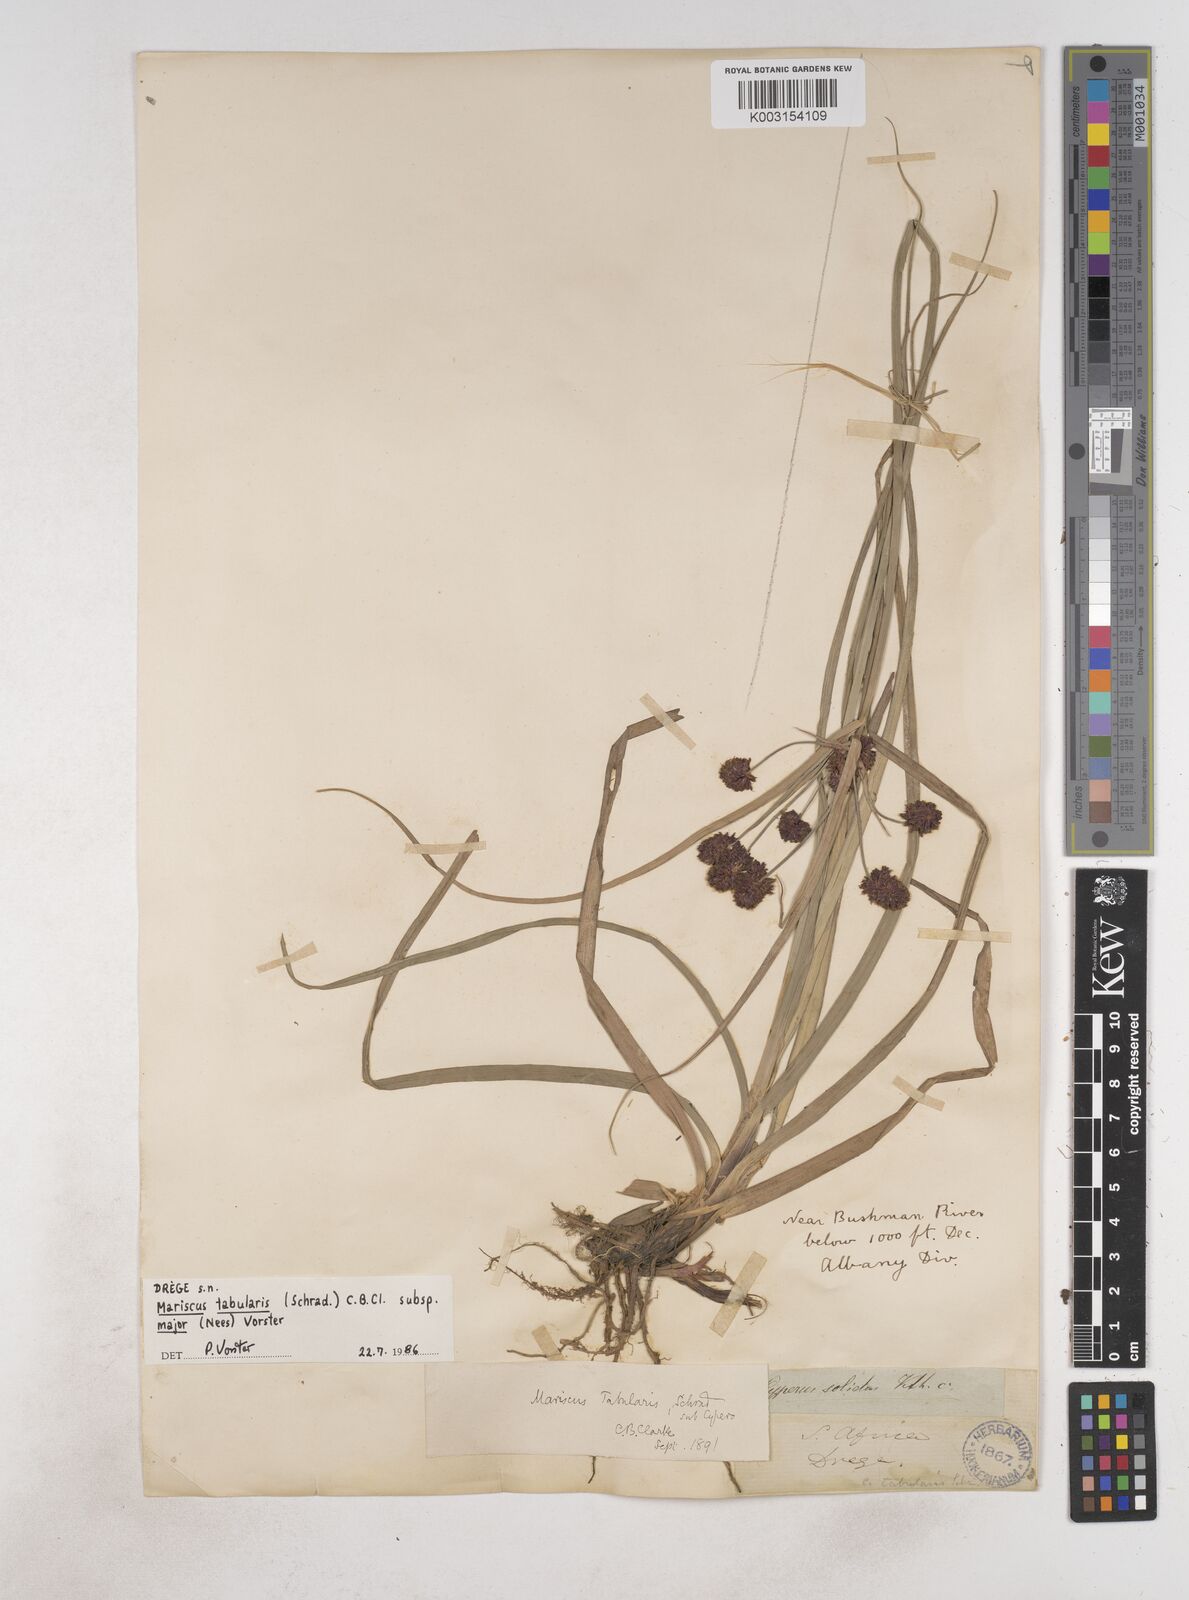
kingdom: Plantae
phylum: Tracheophyta
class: Liliopsida
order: Poales
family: Cyperaceae
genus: Cyperus
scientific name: Cyperus tabularis
